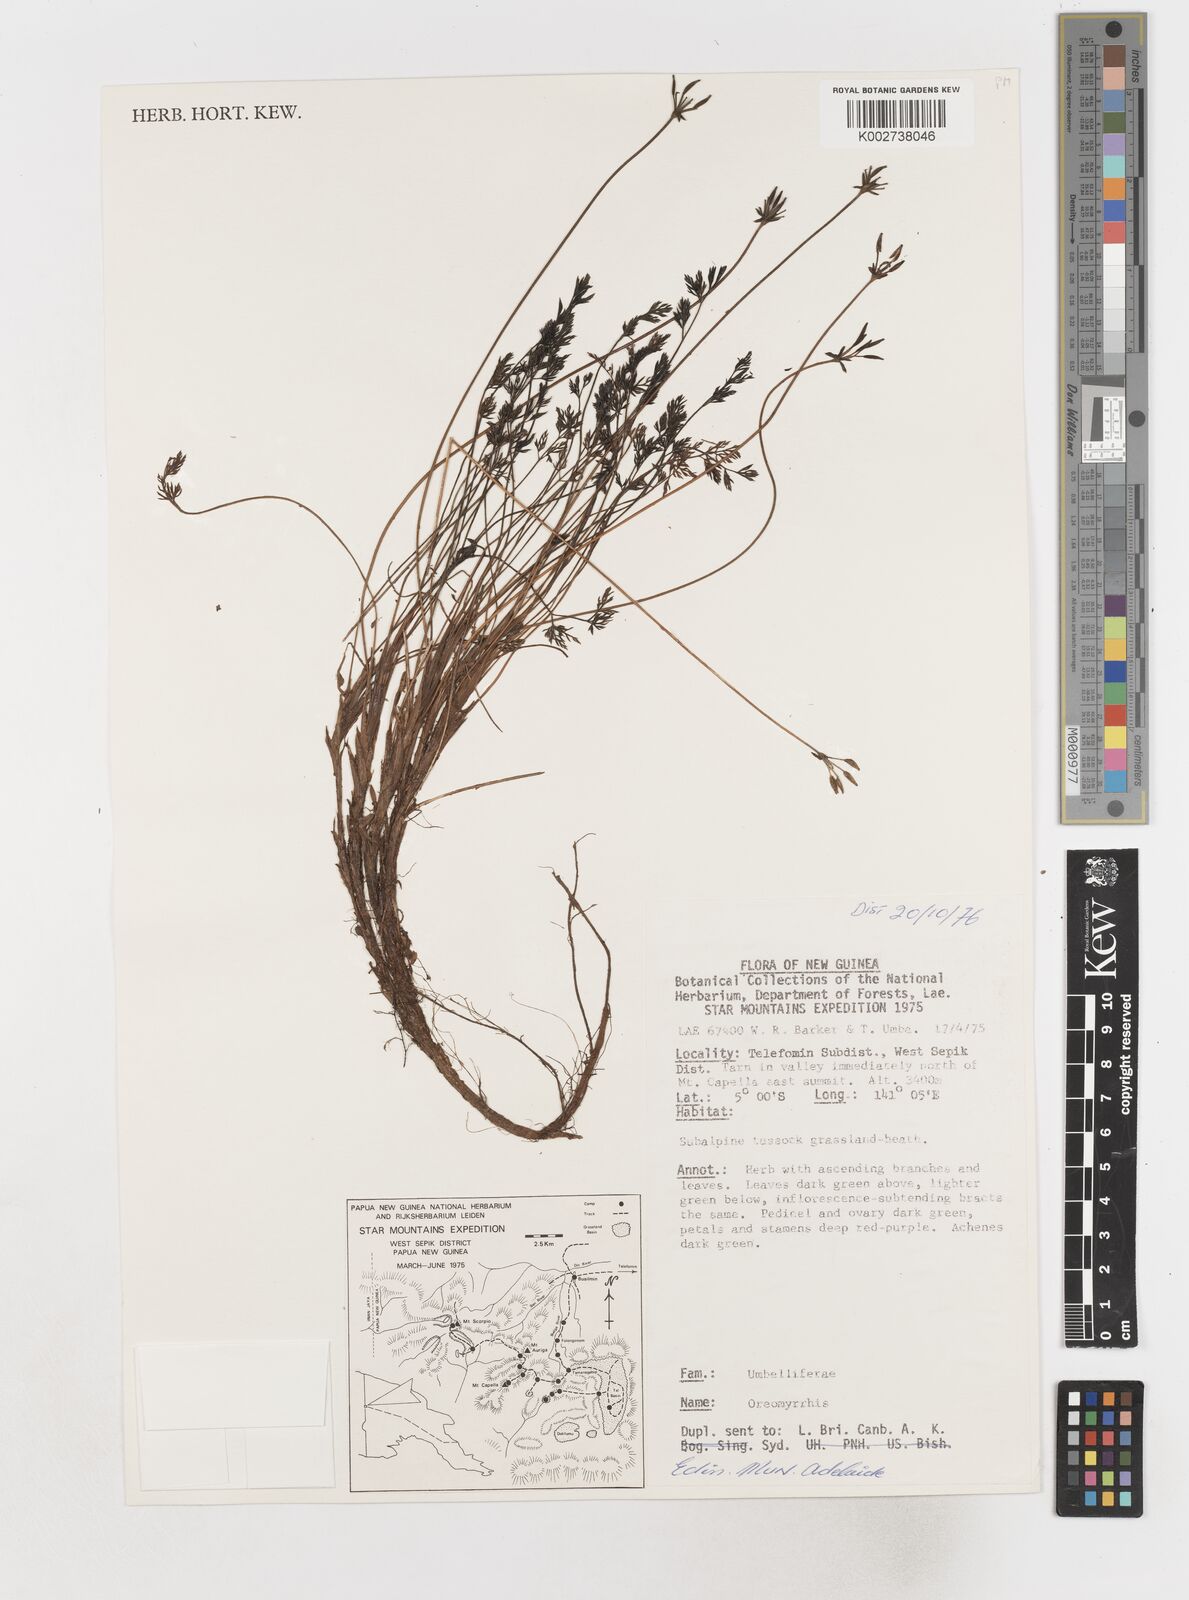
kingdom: Plantae
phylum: Tracheophyta
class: Magnoliopsida
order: Apiales
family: Apiaceae
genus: Chaerophyllum
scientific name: Chaerophyllum pumilum
